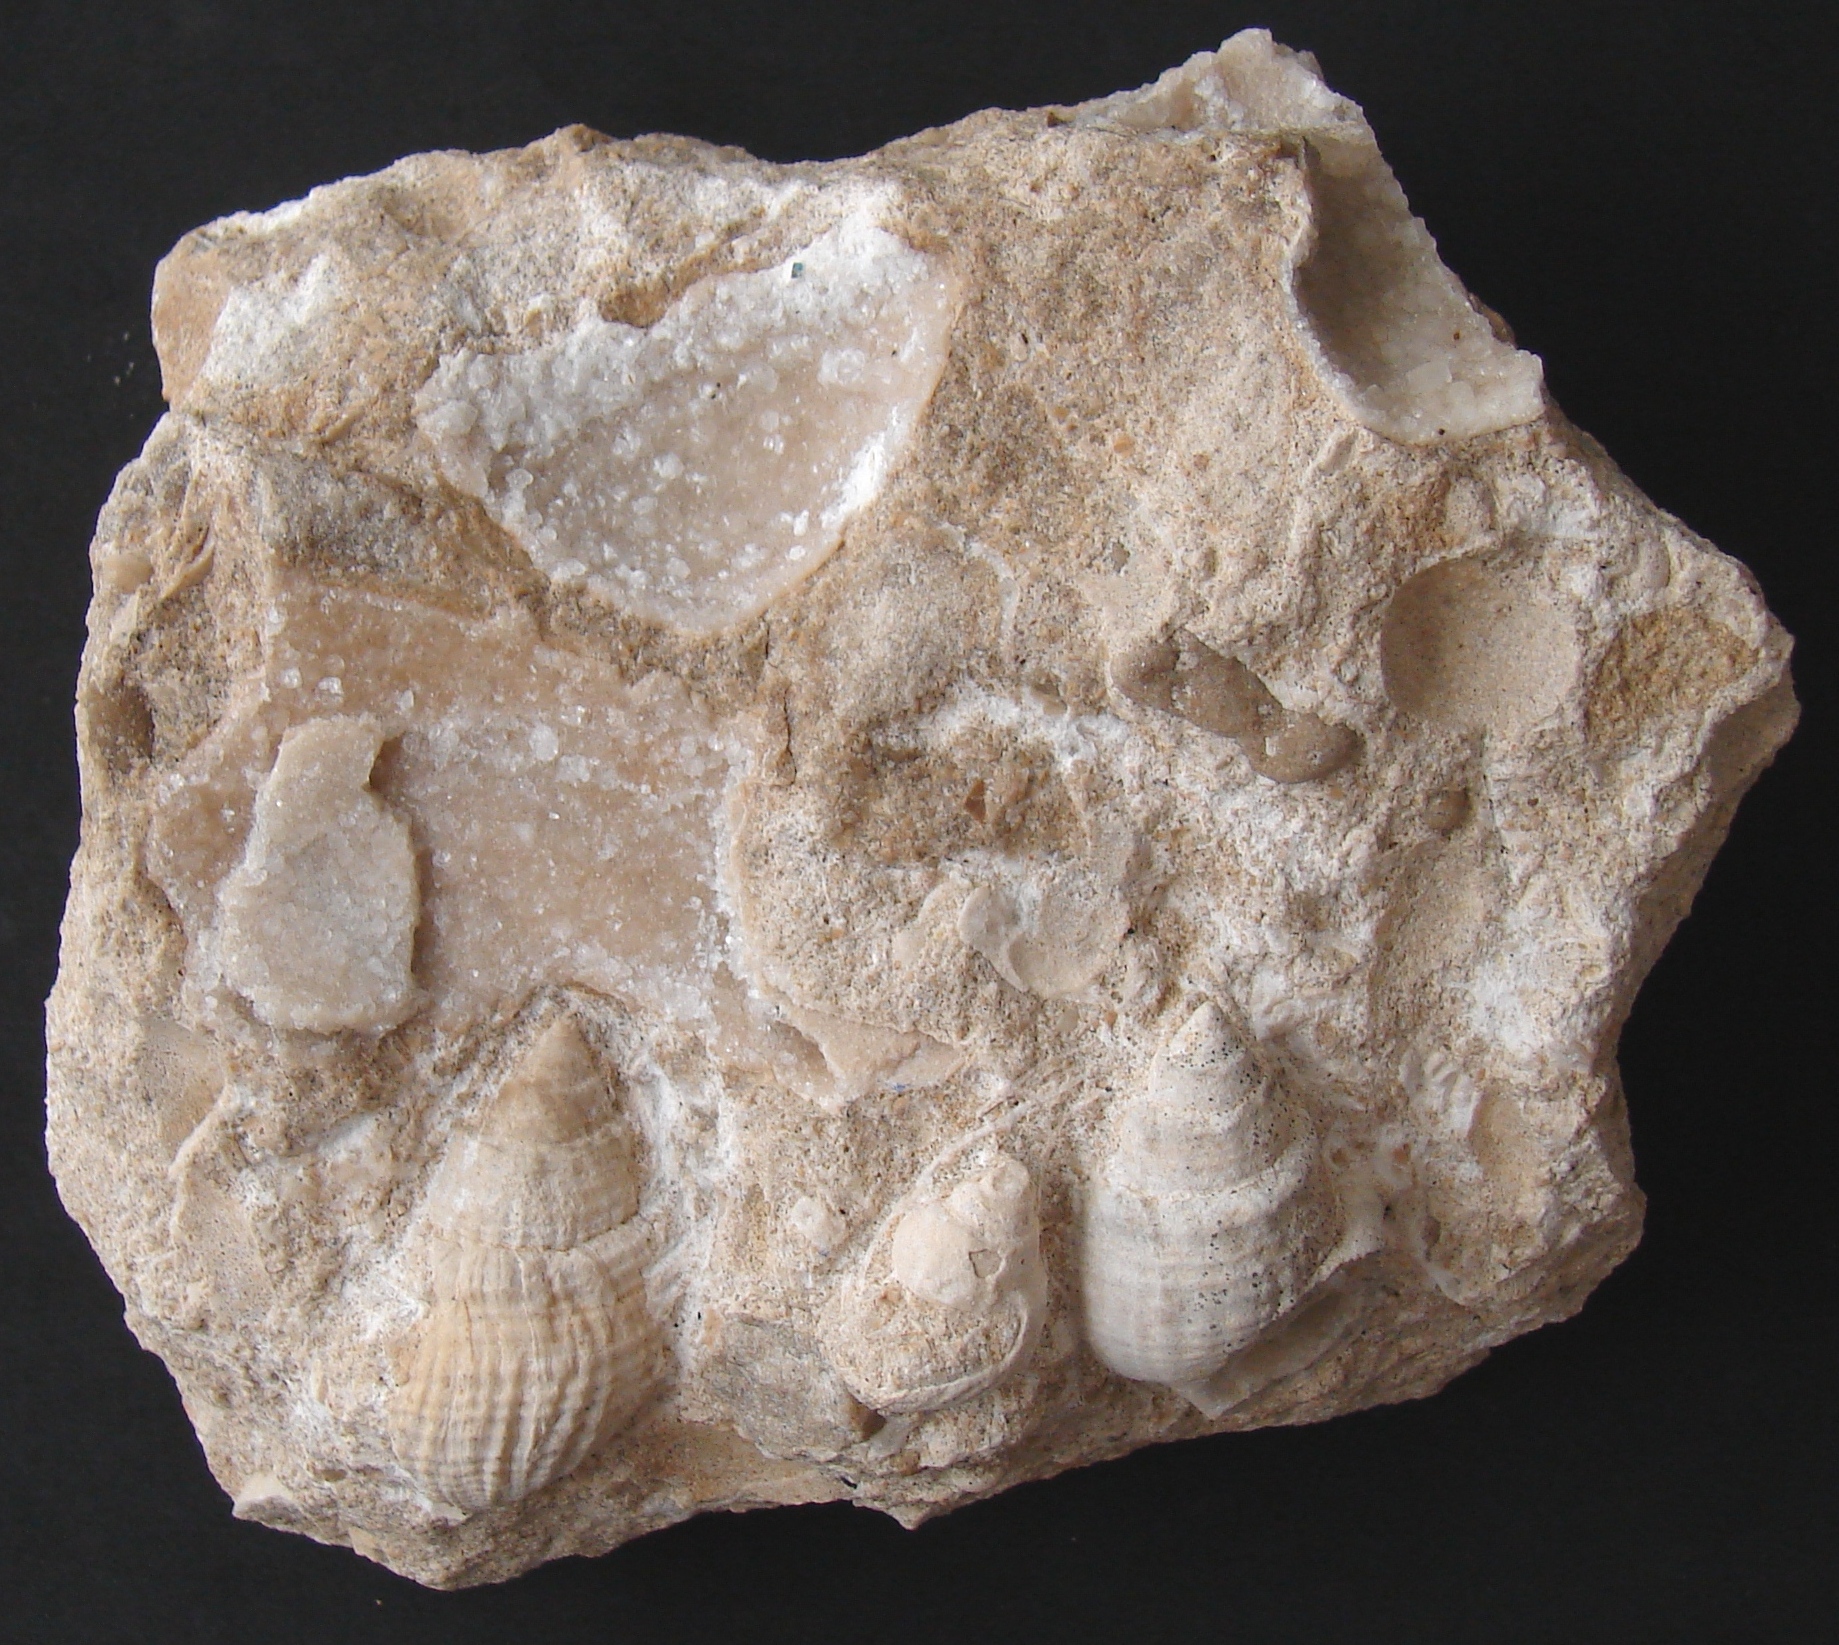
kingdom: Animalia
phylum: Mollusca
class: Gastropoda
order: Neogastropoda
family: Purpurinidae
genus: Microschiza
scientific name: Microschiza
